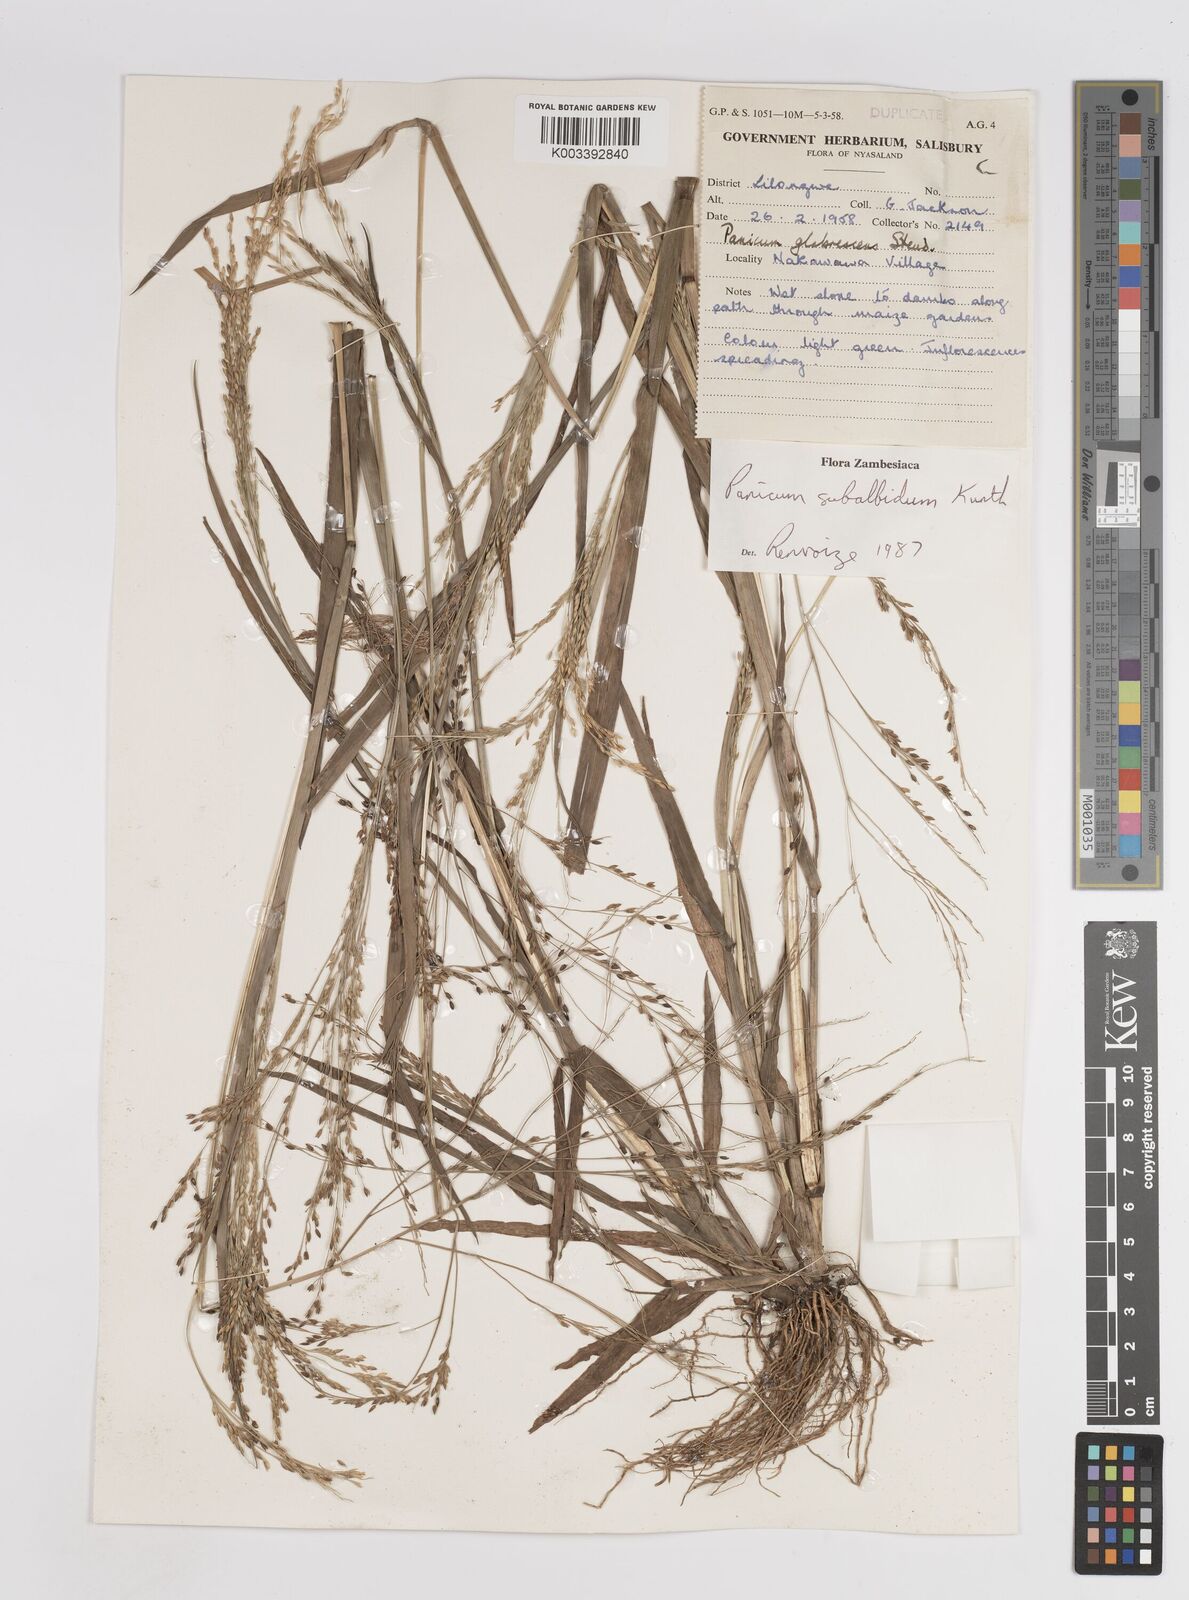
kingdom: Plantae
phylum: Tracheophyta
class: Liliopsida
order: Poales
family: Poaceae
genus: Panicum
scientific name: Panicum subalbidum
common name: Elbow buffalo grass
